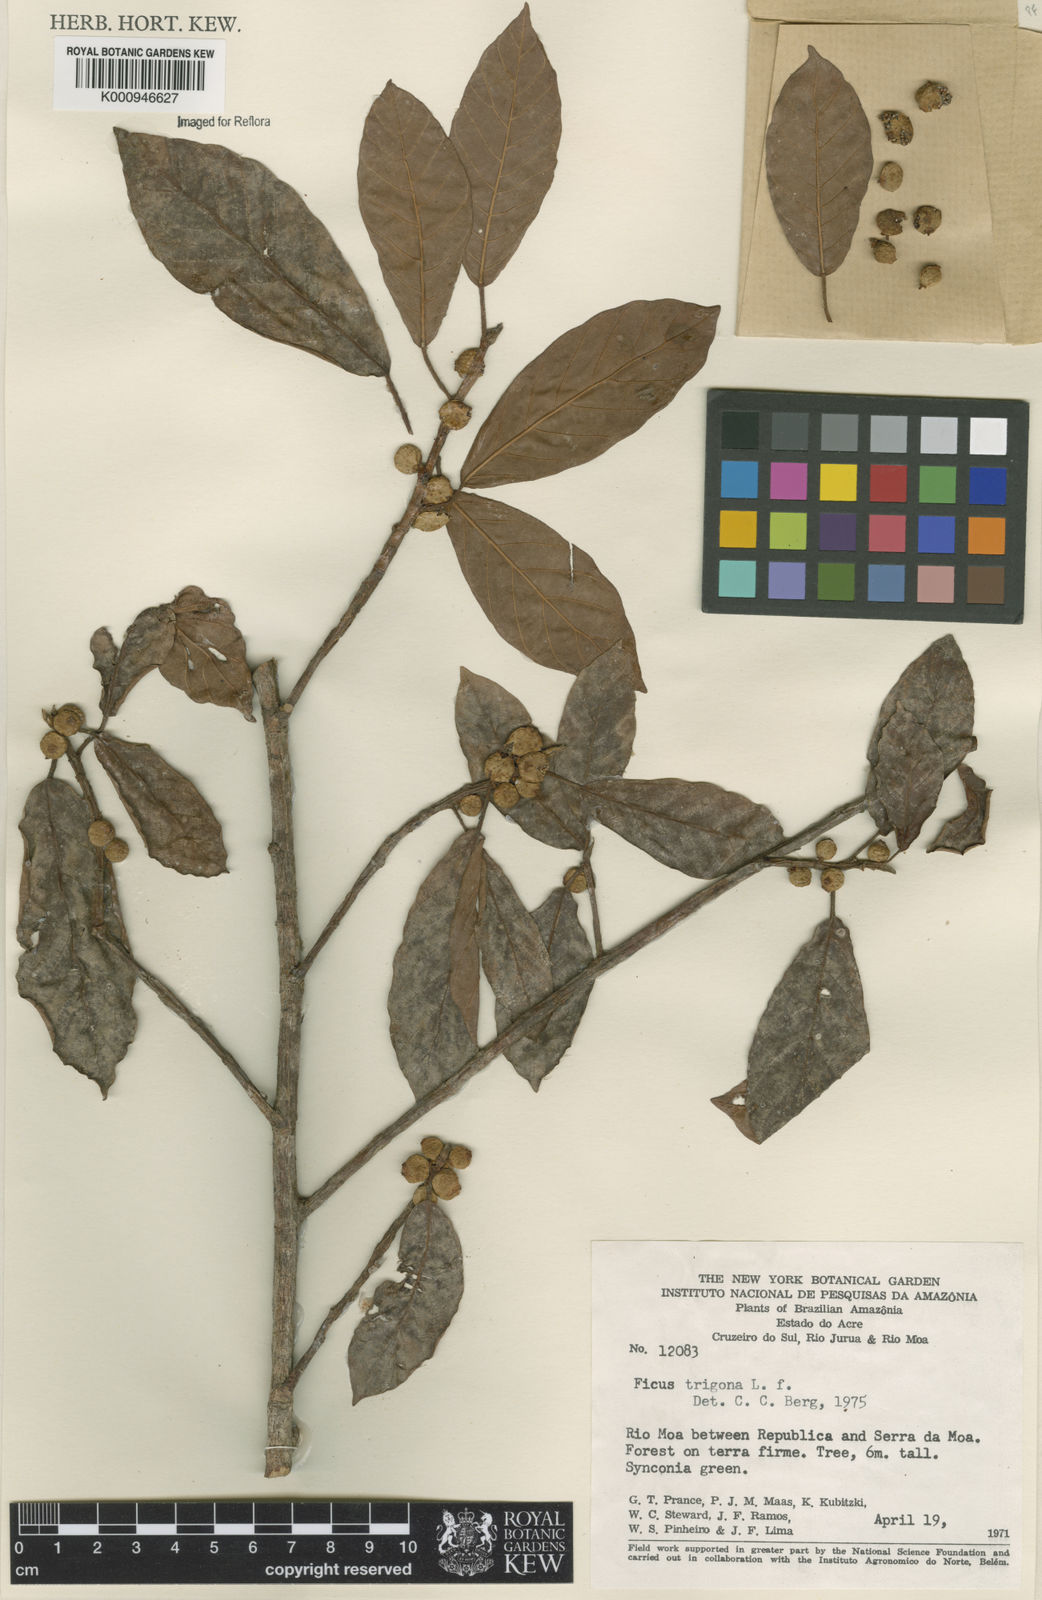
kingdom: Plantae
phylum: Tracheophyta
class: Magnoliopsida
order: Rosales
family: Moraceae
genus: Ficus
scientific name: Ficus trigona
